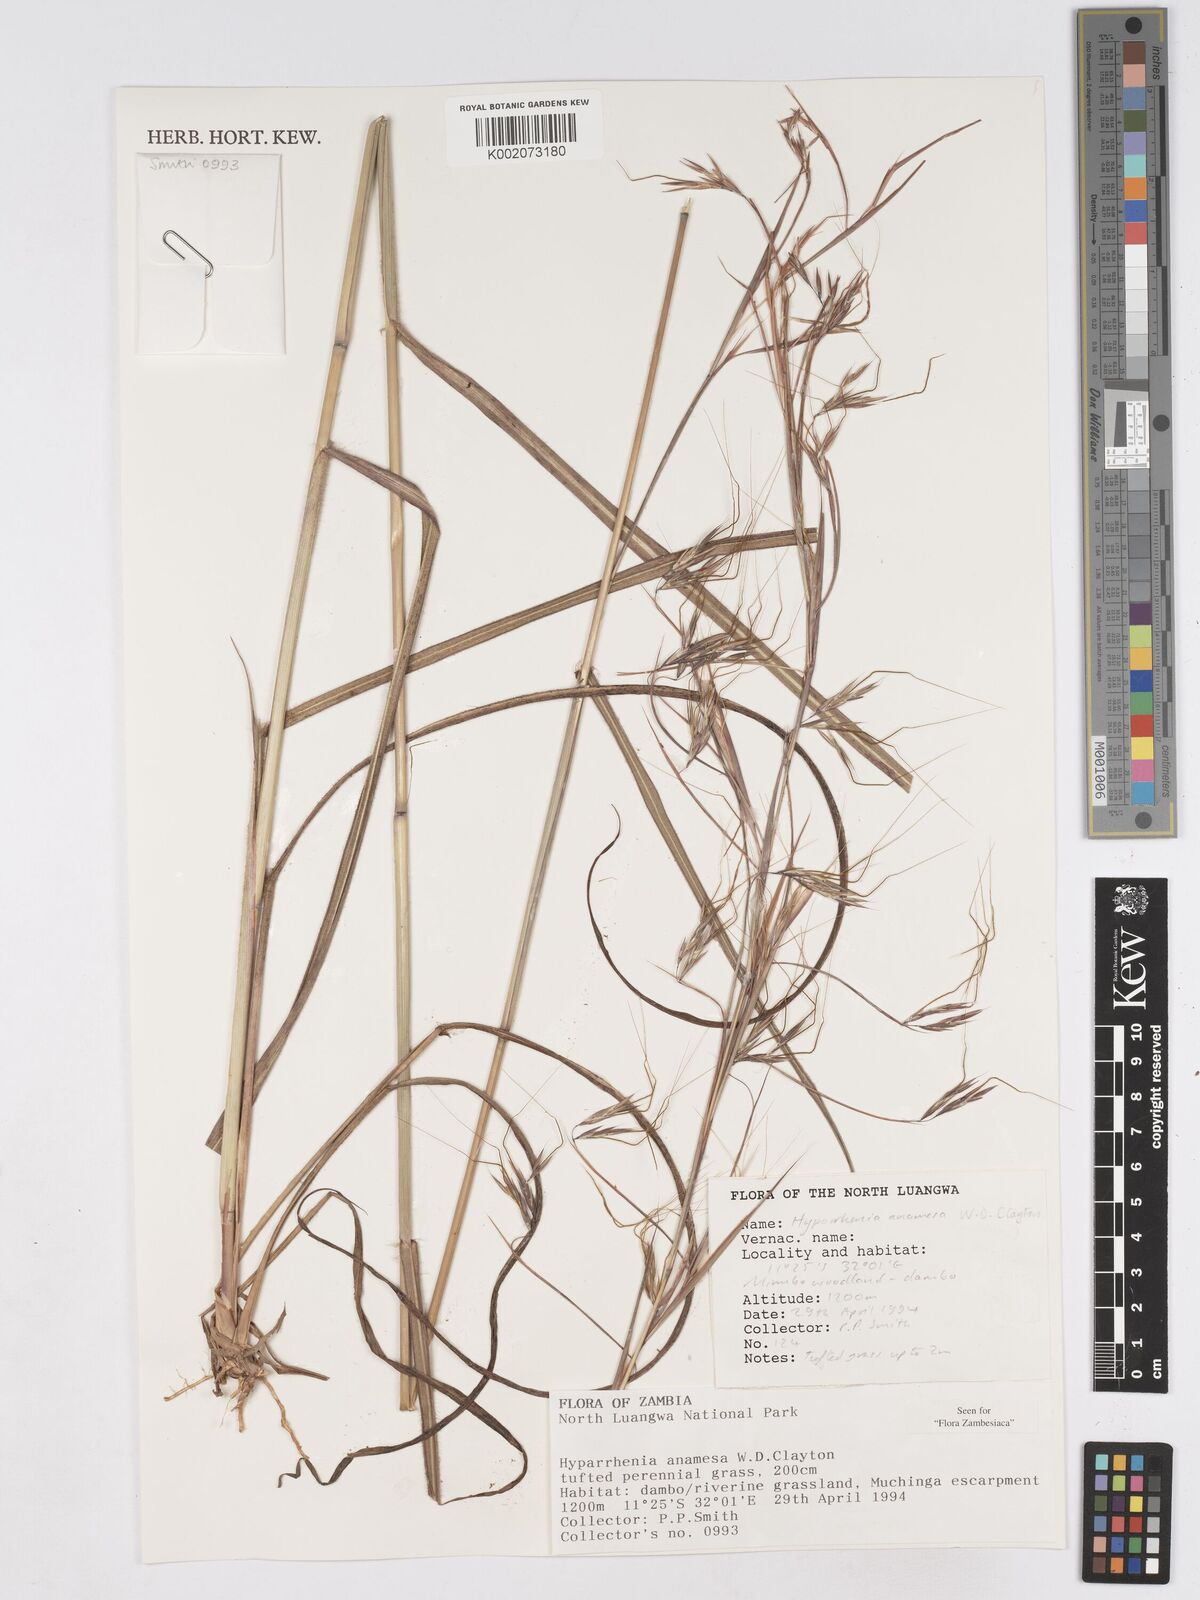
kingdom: Plantae
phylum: Tracheophyta
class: Liliopsida
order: Poales
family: Poaceae
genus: Hyparrhenia
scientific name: Hyparrhenia anamesa
